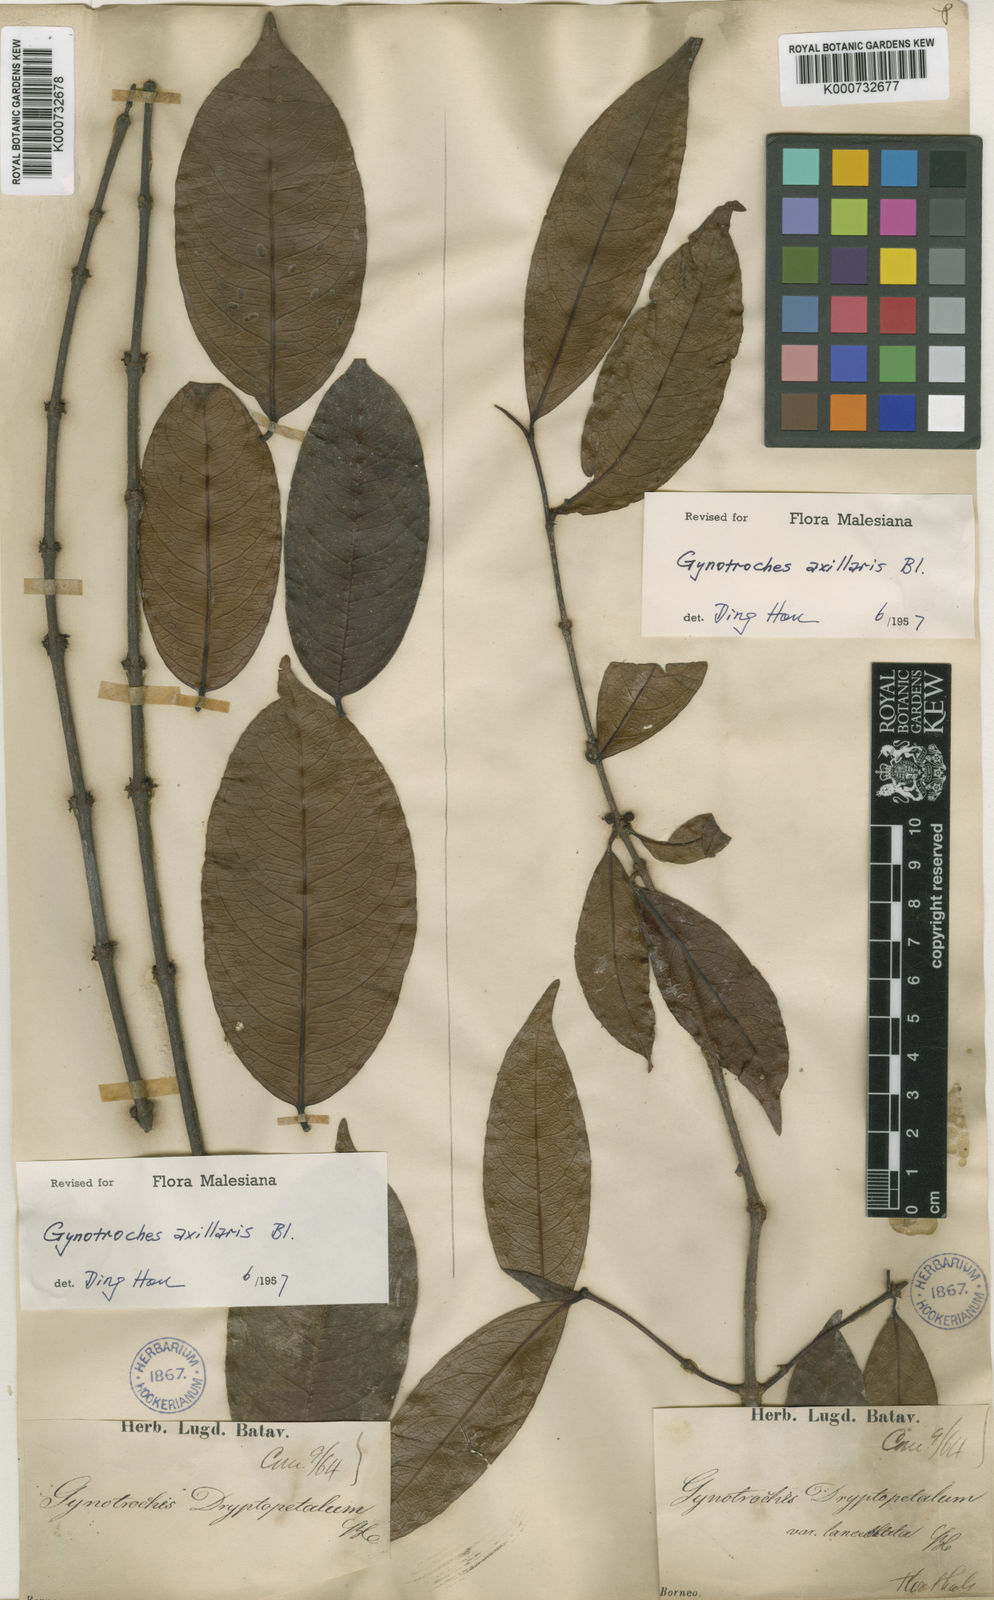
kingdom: Plantae
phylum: Tracheophyta
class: Magnoliopsida
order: Malpighiales
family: Rhizophoraceae
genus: Gynotroches
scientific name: Gynotroches axillaris
